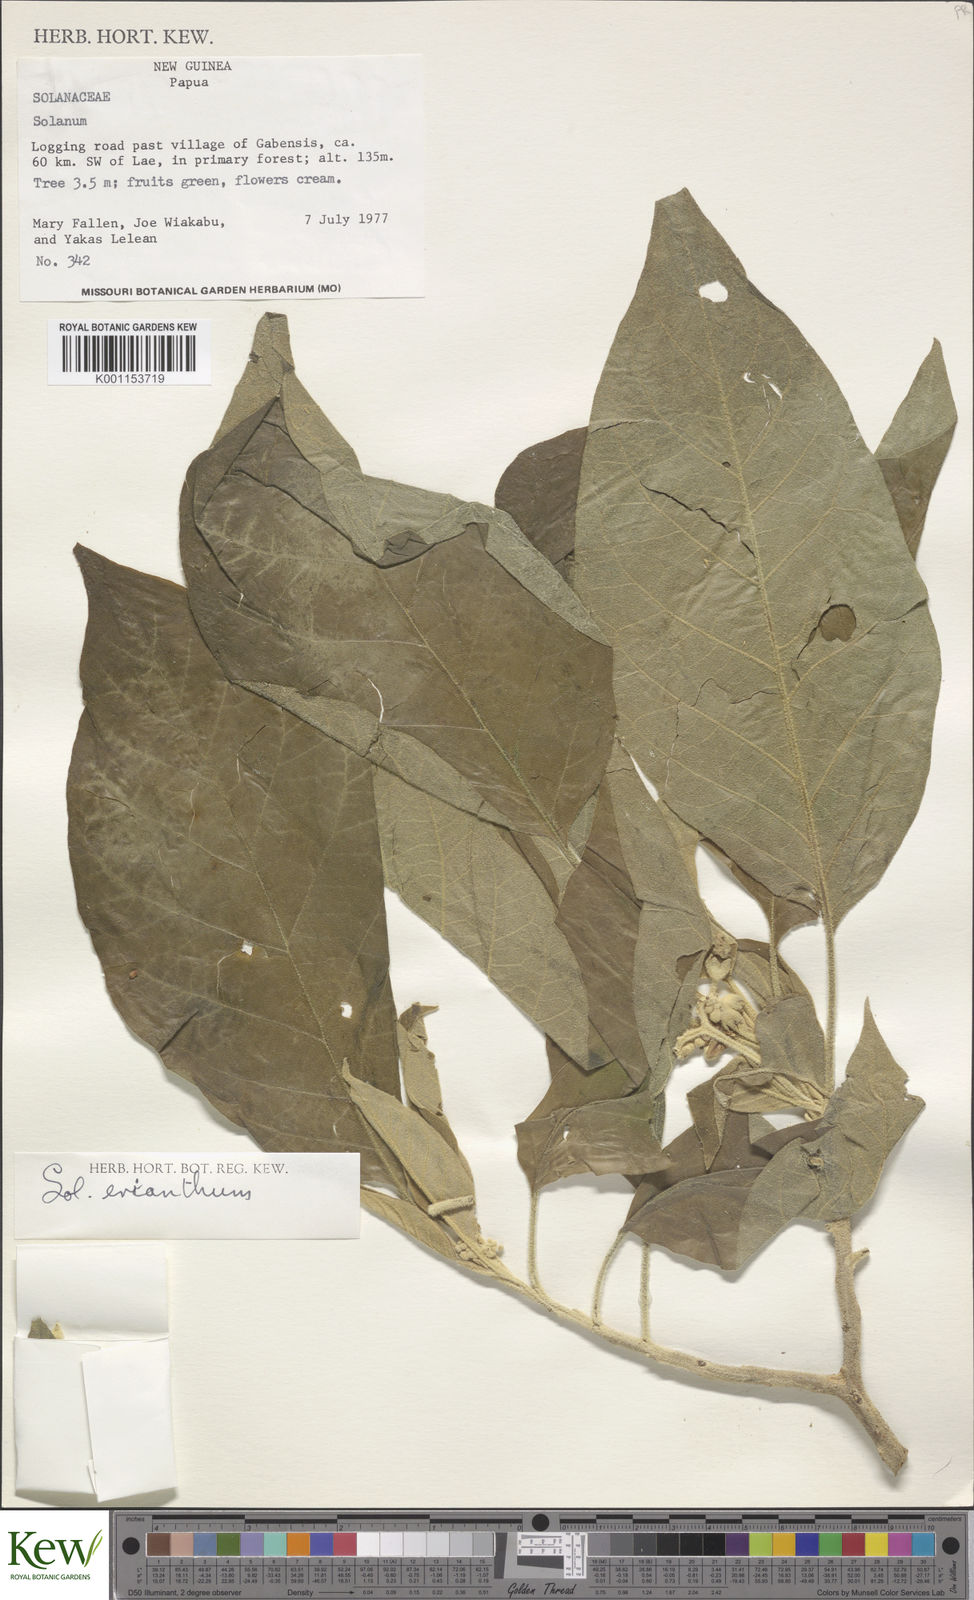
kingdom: Plantae
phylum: Tracheophyta
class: Magnoliopsida
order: Solanales
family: Solanaceae
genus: Solanum
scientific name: Solanum erianthum
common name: Tobacco-tree
